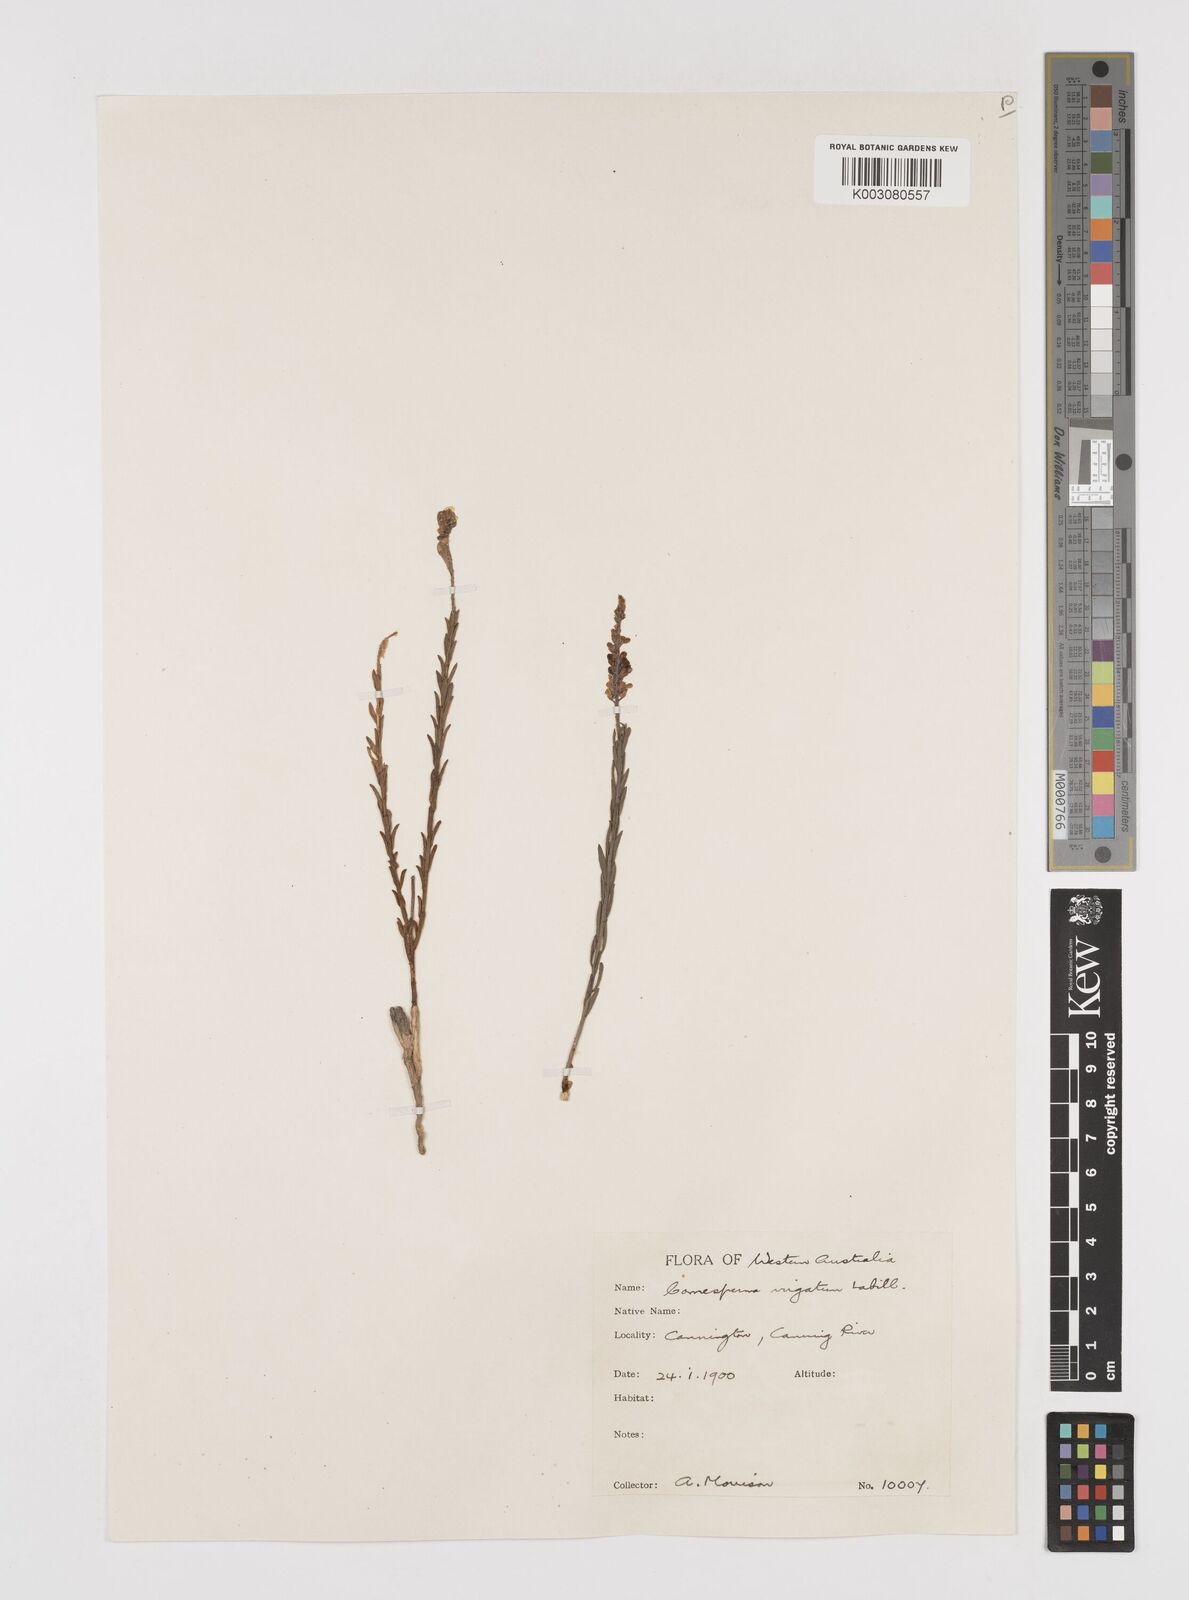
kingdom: Plantae
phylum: Tracheophyta
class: Magnoliopsida
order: Fabales
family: Polygalaceae
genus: Comesperma
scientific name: Comesperma virgatum
